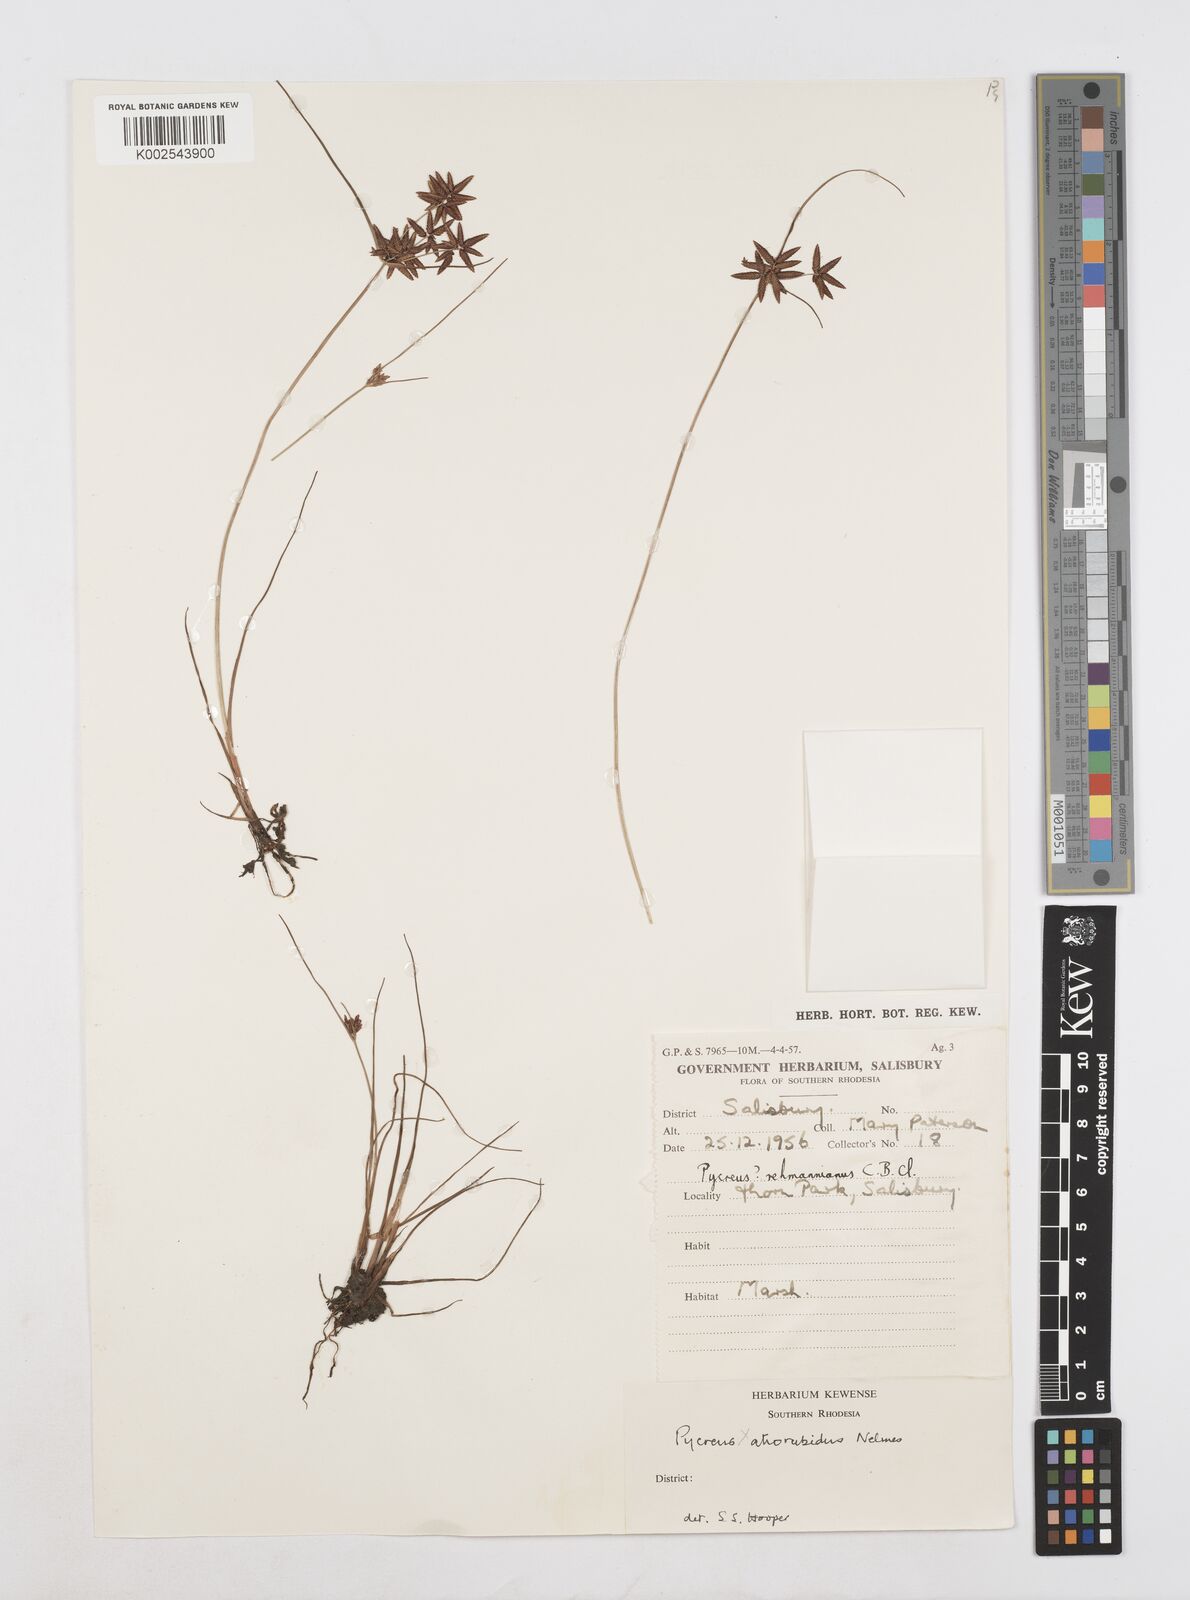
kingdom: Plantae
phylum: Tracheophyta
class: Liliopsida
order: Poales
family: Cyperaceae
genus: Cyperus
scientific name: Cyperus flavescens
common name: Yellow galingale
